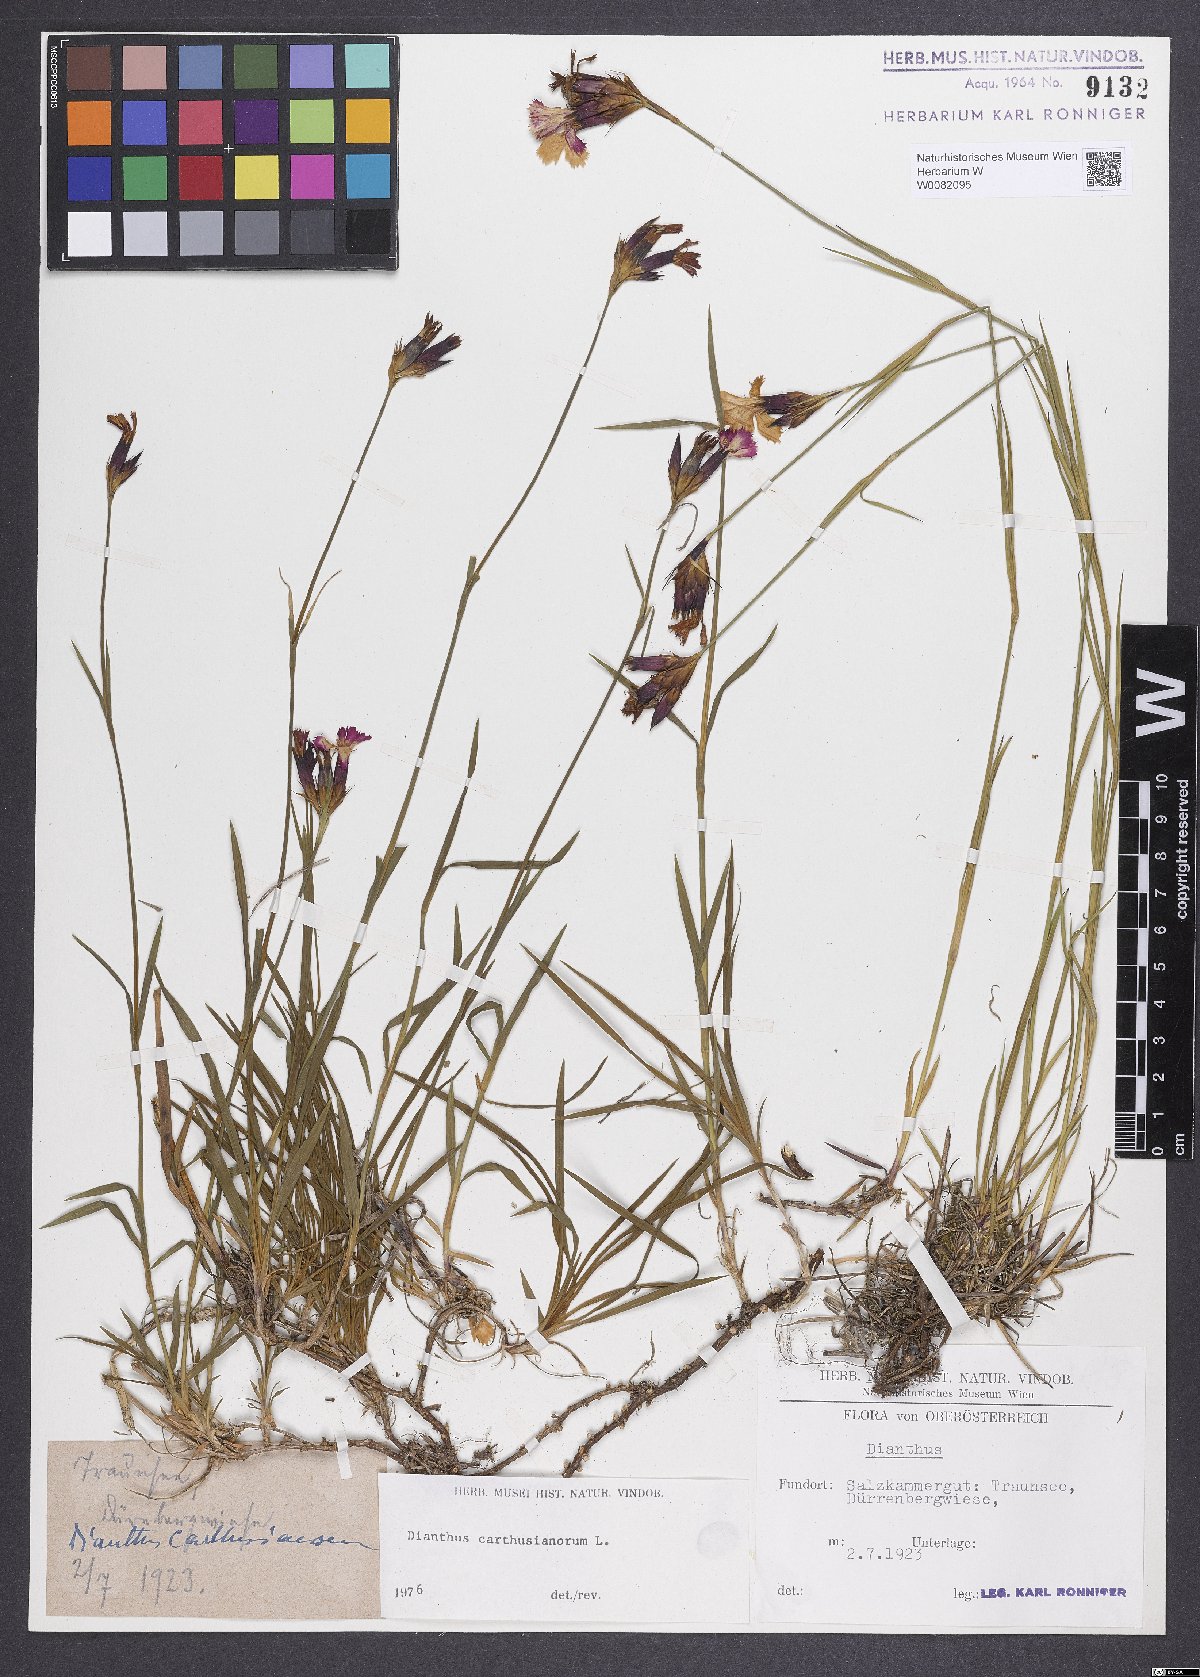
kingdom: Plantae
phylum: Tracheophyta
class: Magnoliopsida
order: Caryophyllales
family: Caryophyllaceae
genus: Dianthus
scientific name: Dianthus carthusianorum
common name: Carthusian pink
